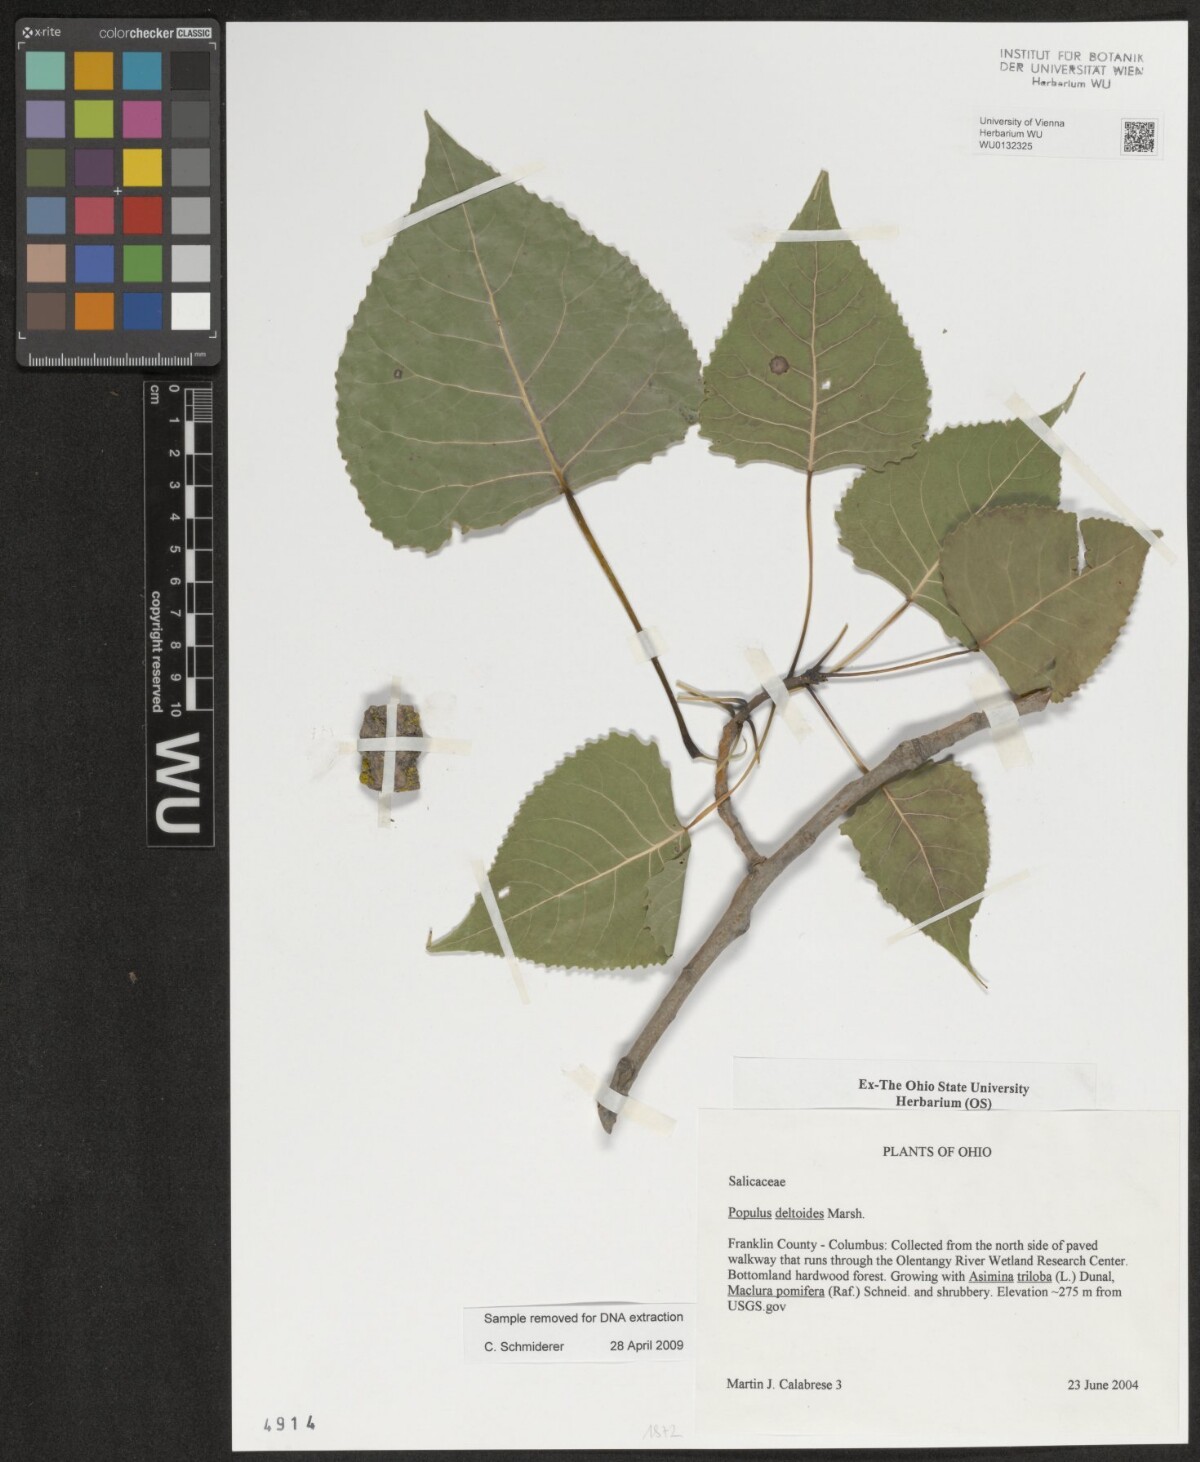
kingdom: Plantae
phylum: Tracheophyta
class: Magnoliopsida
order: Malpighiales
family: Salicaceae
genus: Populus
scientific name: Populus deltoides
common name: Eastern cottonwood
